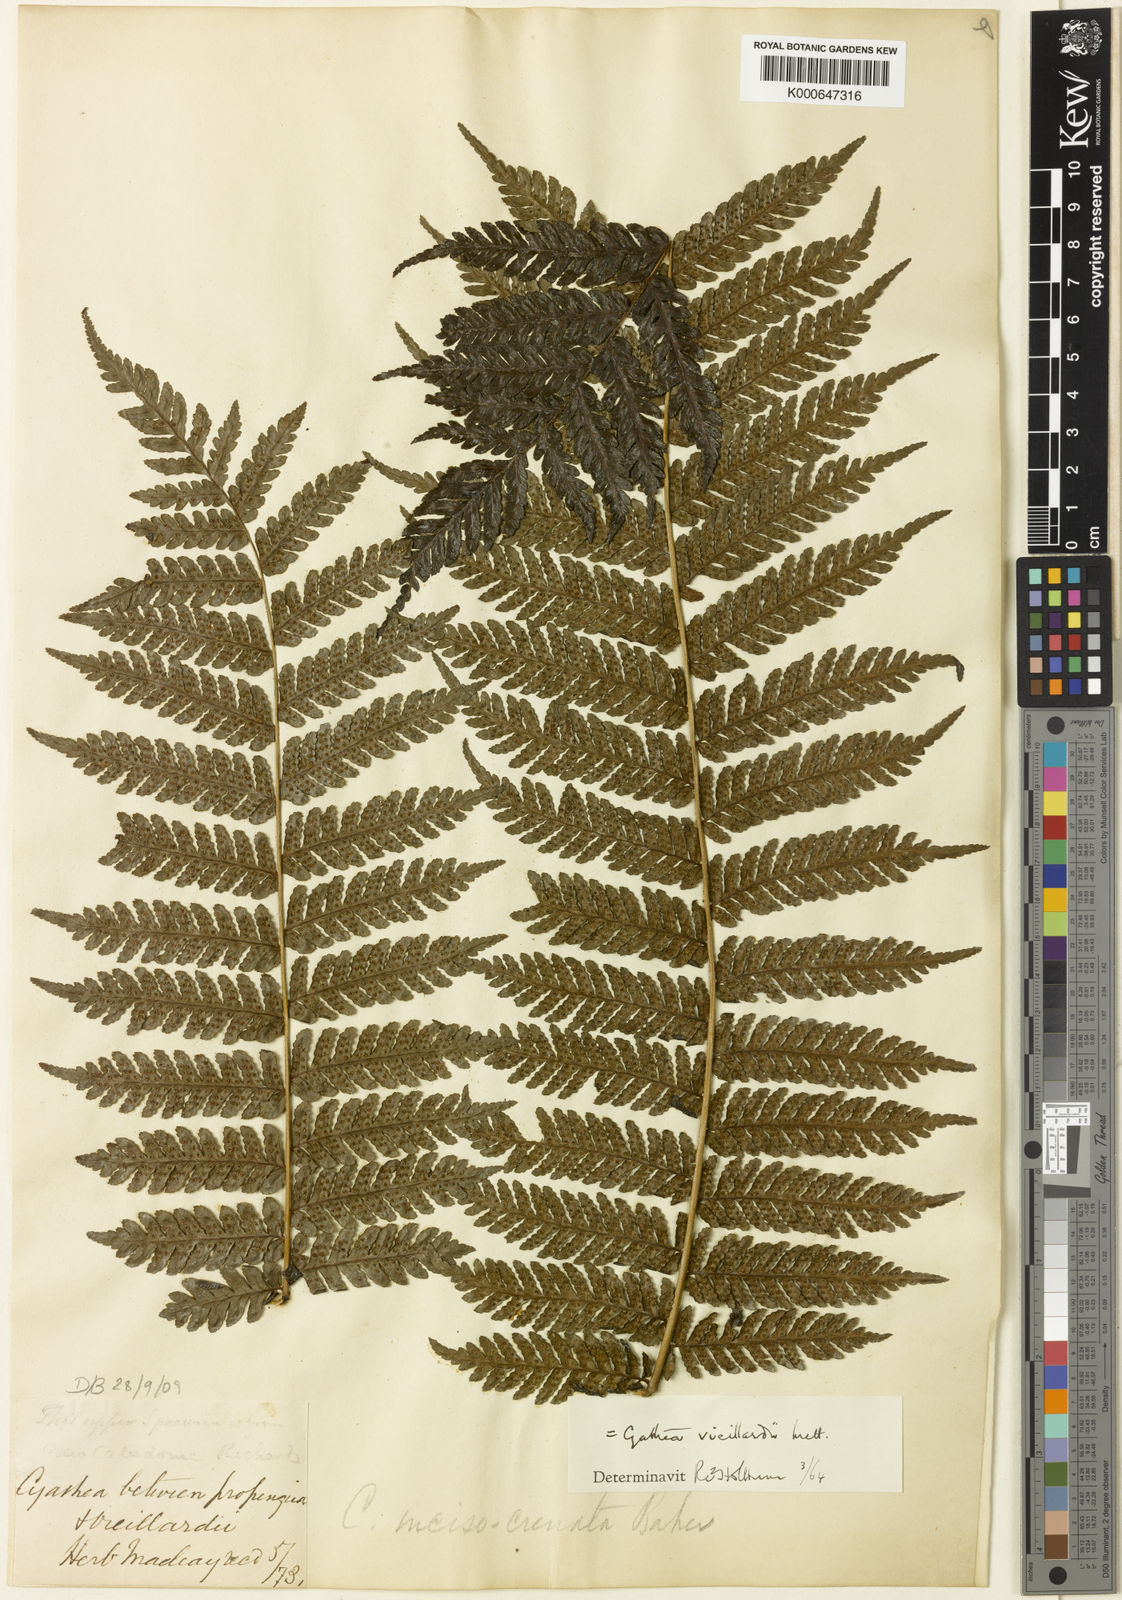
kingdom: Plantae
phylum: Tracheophyta
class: Polypodiopsida
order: Cyatheales
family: Cyatheaceae
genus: Alsophila
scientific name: Alsophila vieillardii
